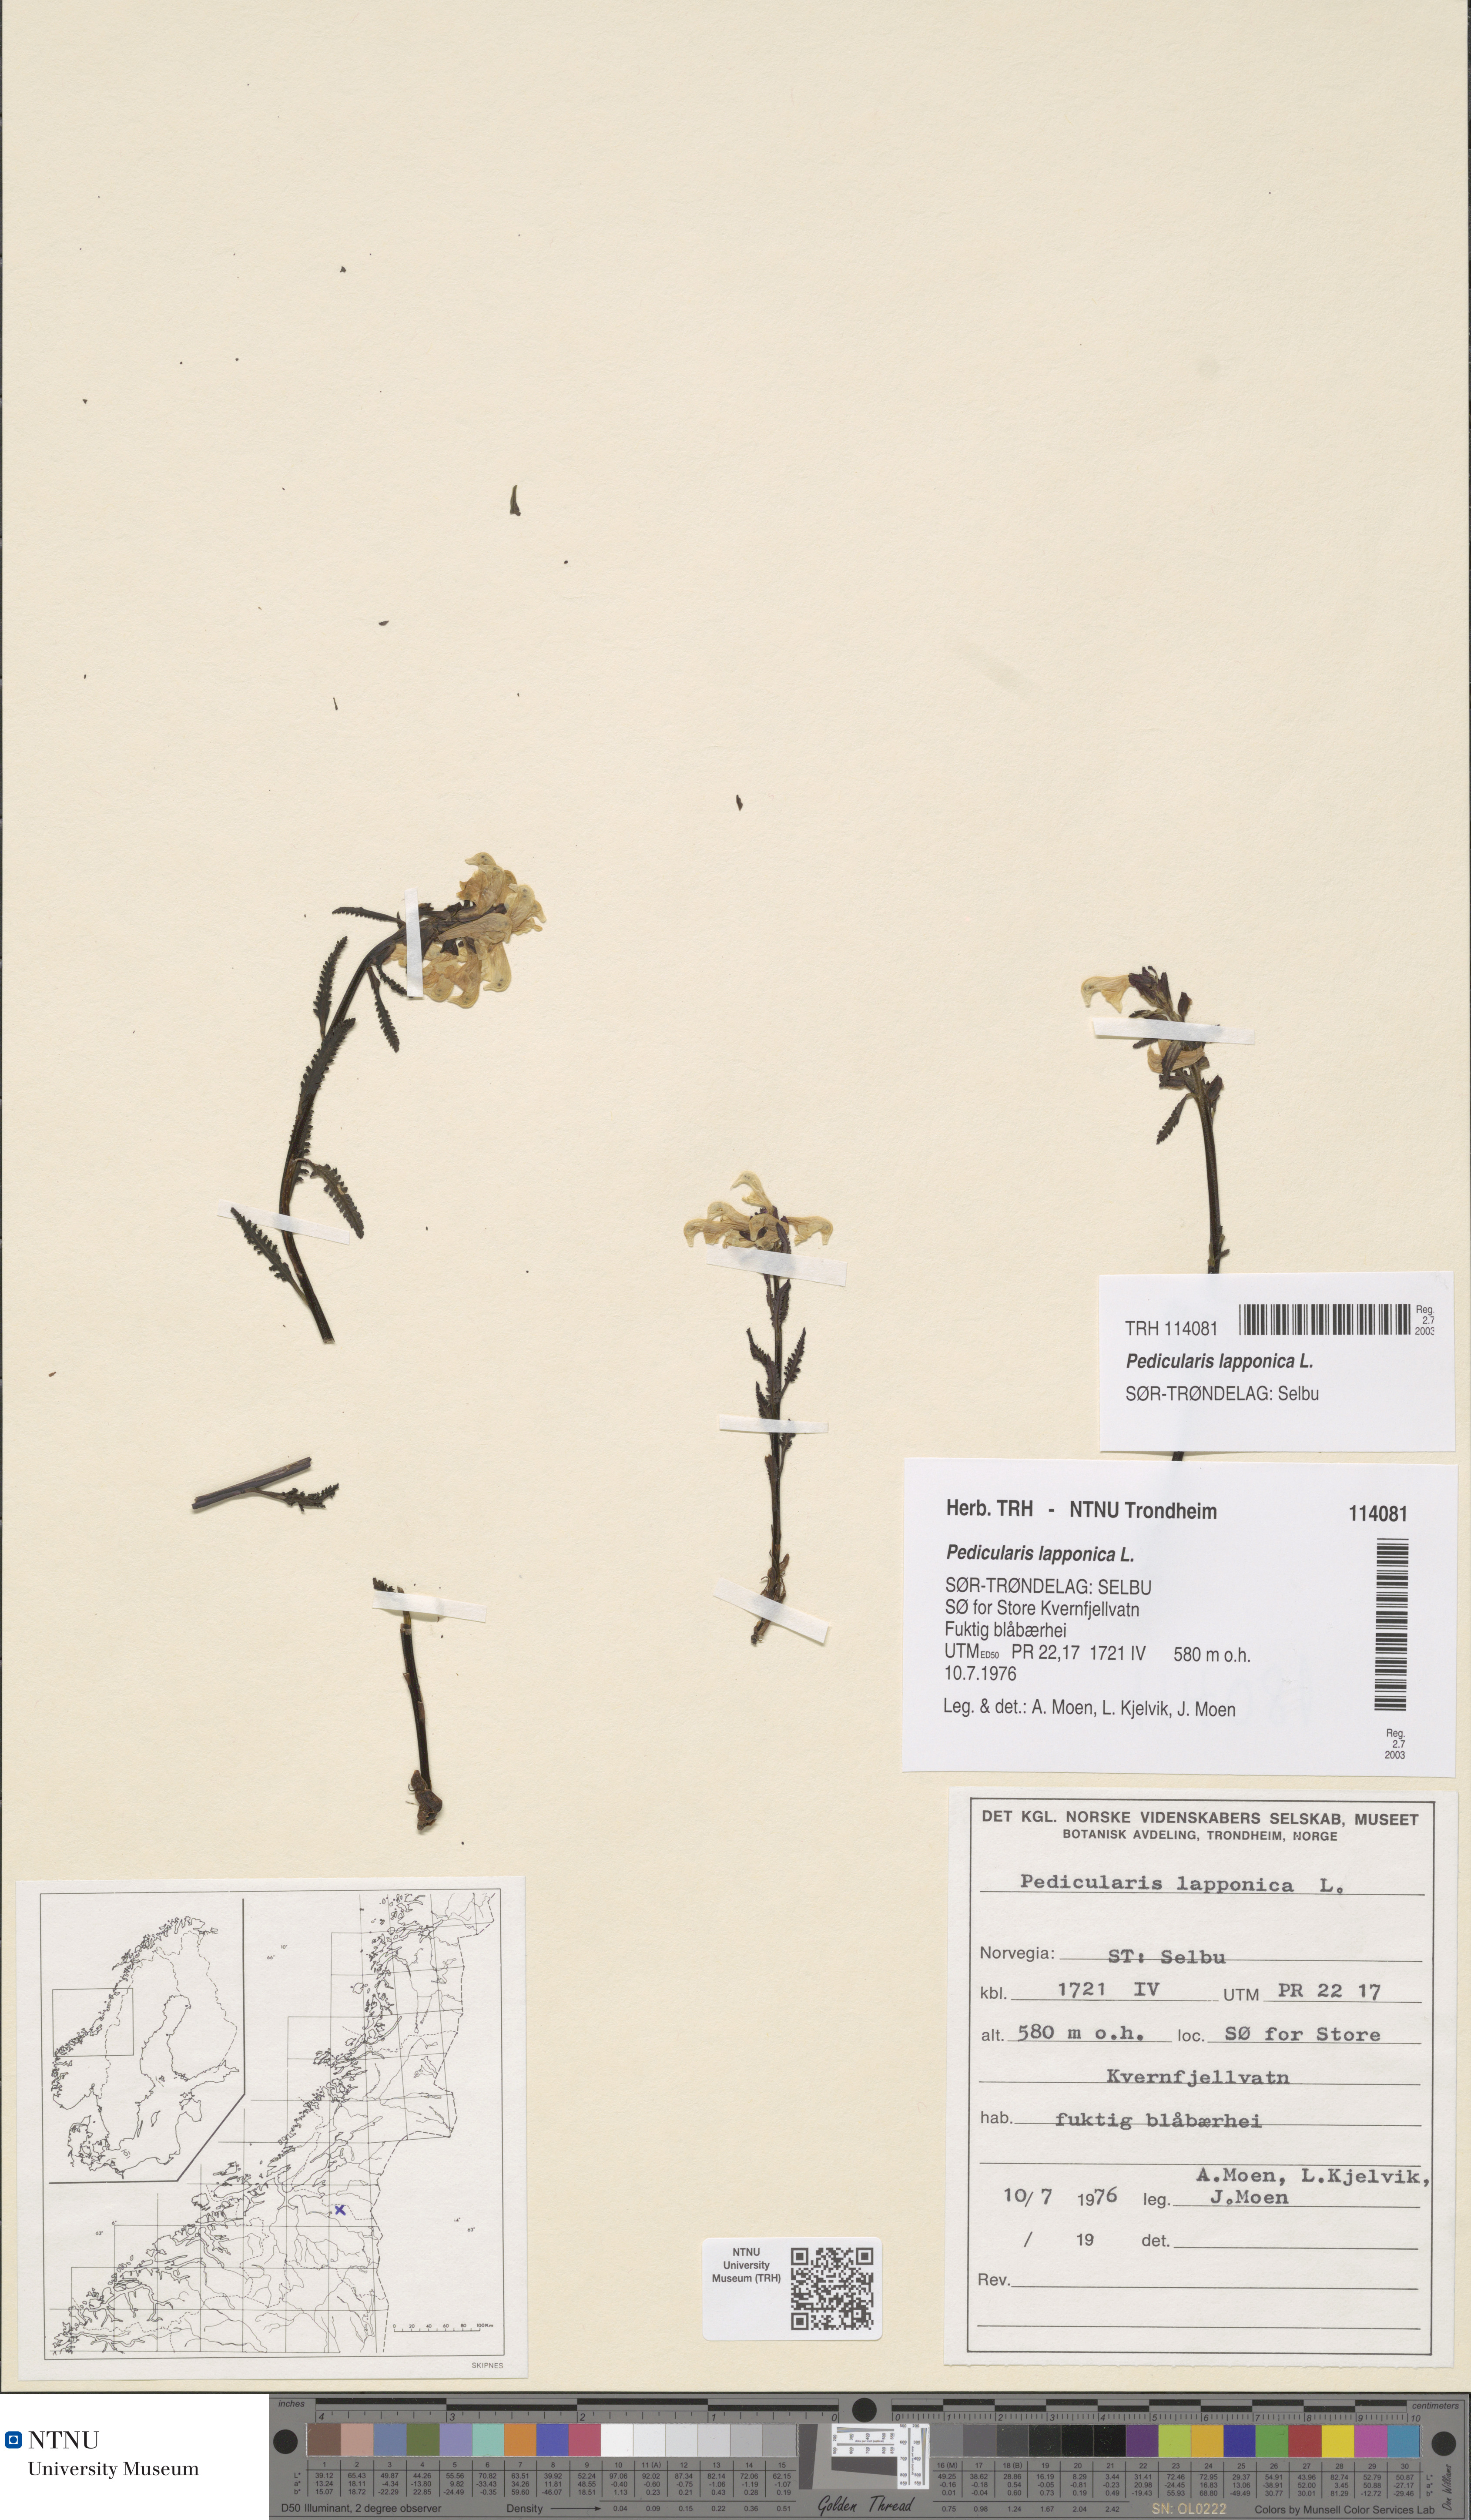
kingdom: Plantae
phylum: Tracheophyta
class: Magnoliopsida
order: Lamiales
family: Orobanchaceae
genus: Pedicularis
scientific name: Pedicularis lapponica
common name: Lapland lousewort
